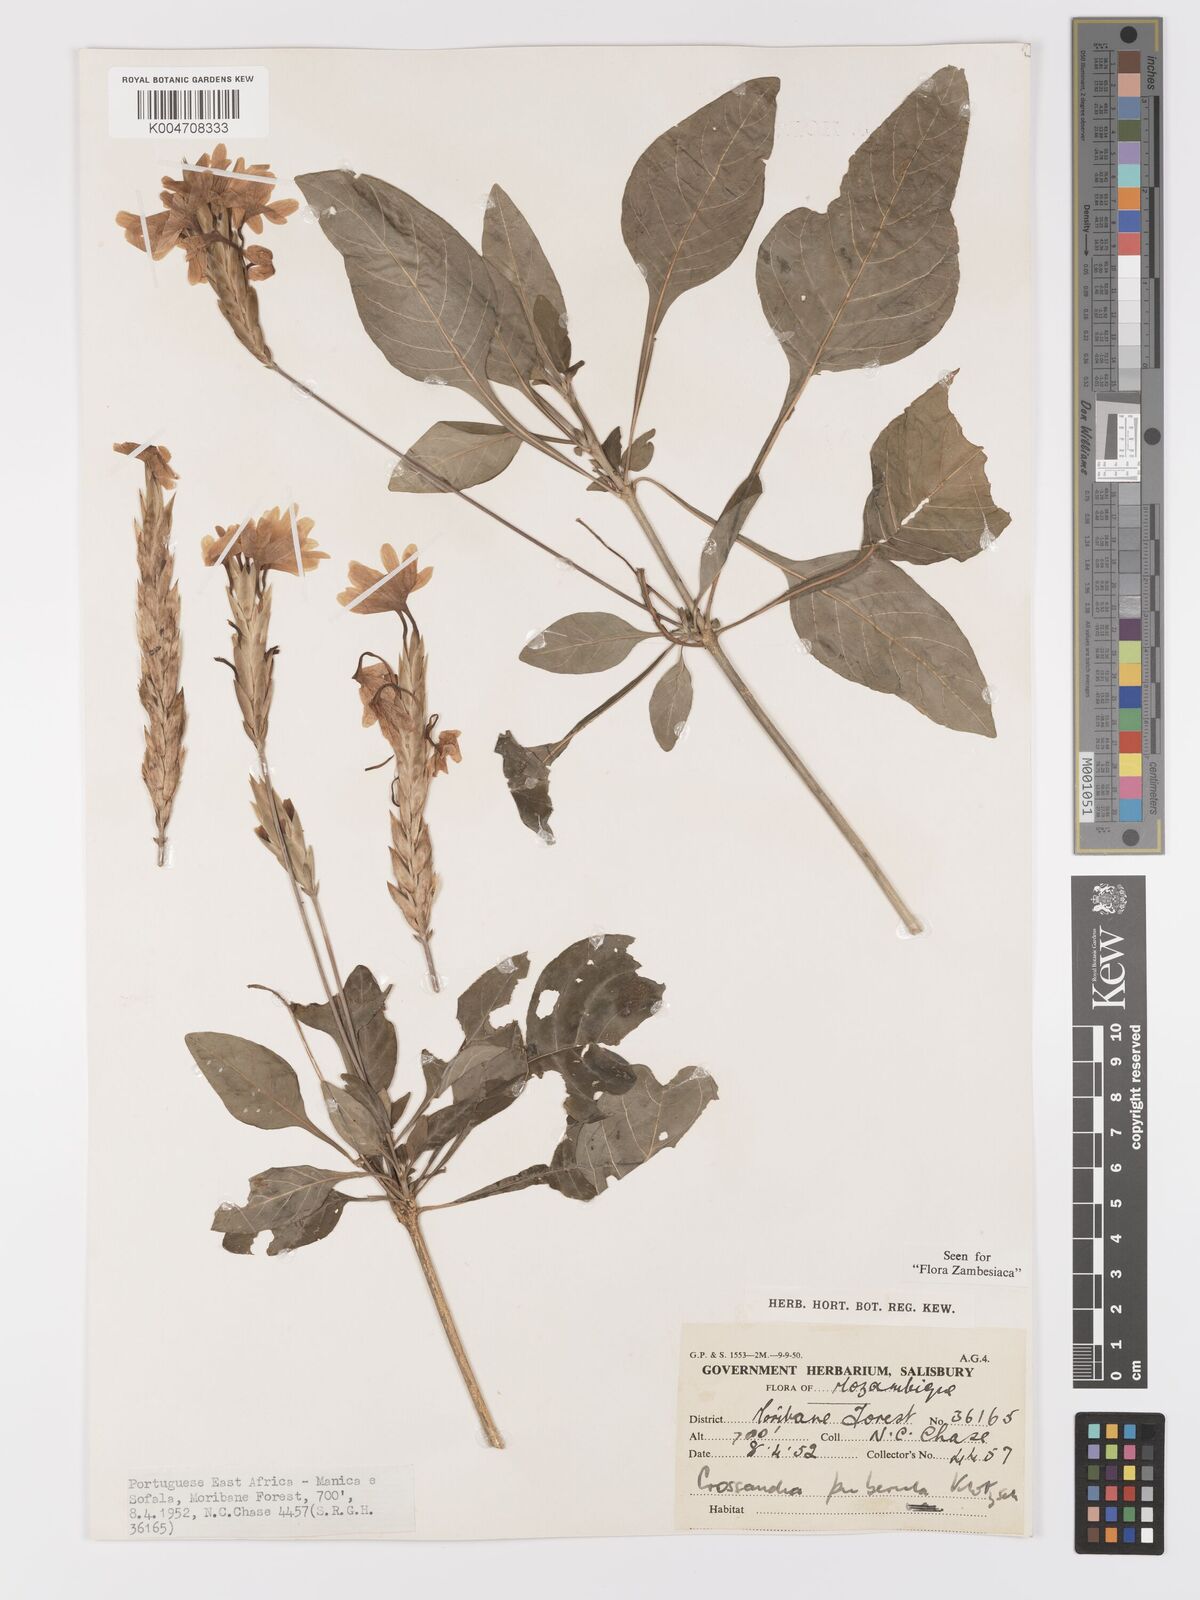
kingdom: Plantae
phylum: Tracheophyta
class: Magnoliopsida
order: Lamiales
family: Acanthaceae
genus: Crossandra
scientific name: Crossandra puberula
